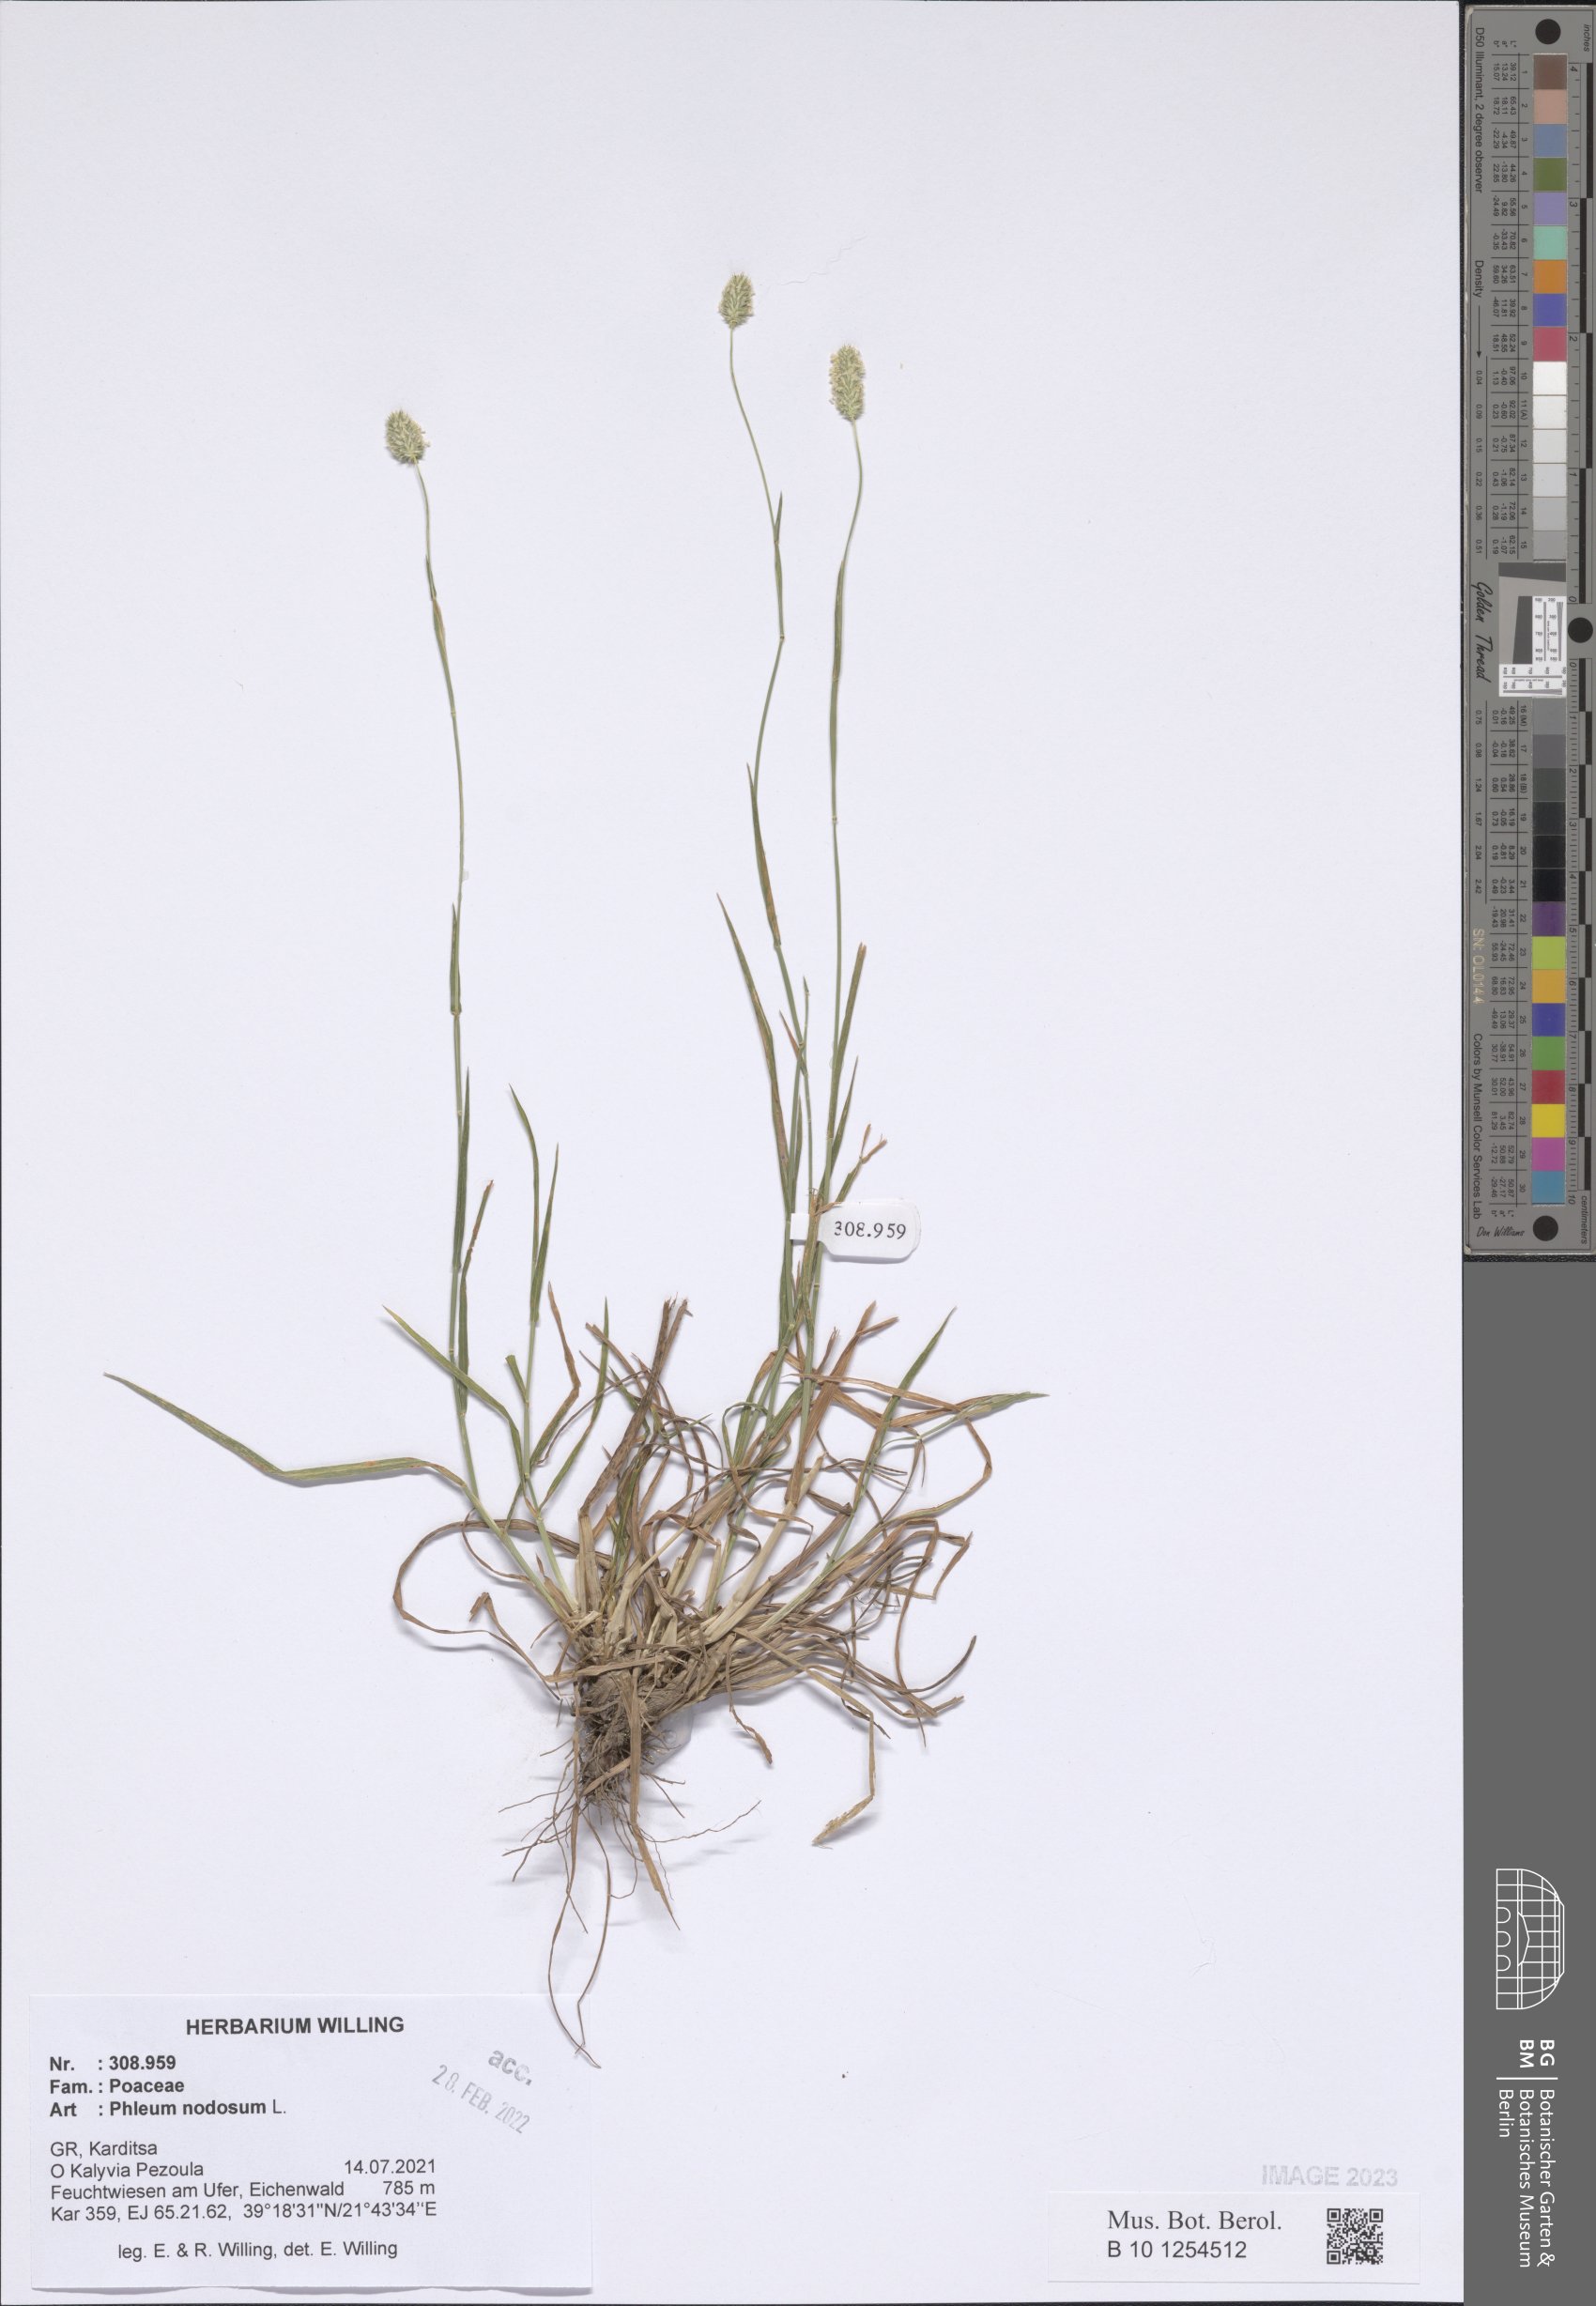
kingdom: Plantae
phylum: Tracheophyta
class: Liliopsida
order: Poales
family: Poaceae
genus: Phleum
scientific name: Phleum pratense
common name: Timothy grass
